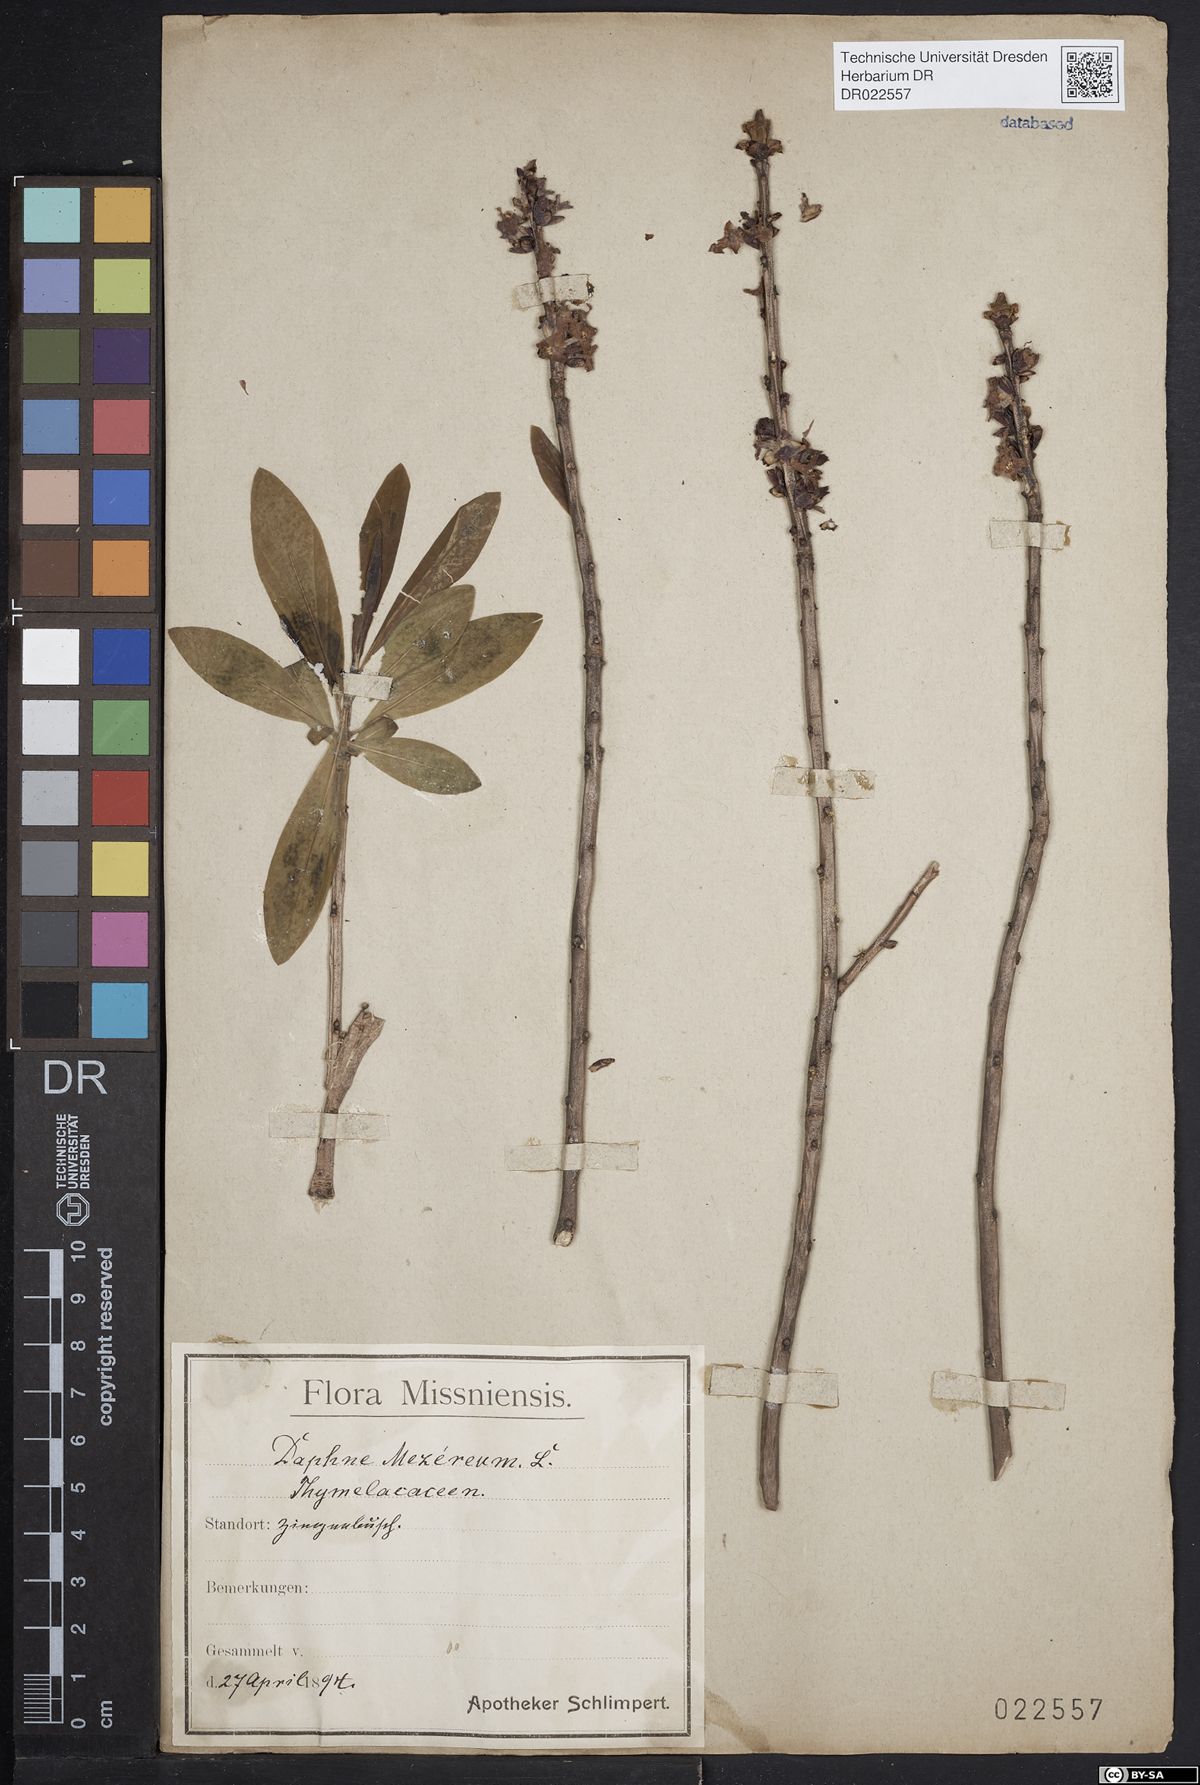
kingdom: Plantae
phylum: Tracheophyta
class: Magnoliopsida
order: Malvales
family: Thymelaeaceae
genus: Daphne
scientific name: Daphne mezereum
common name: Mezereon
